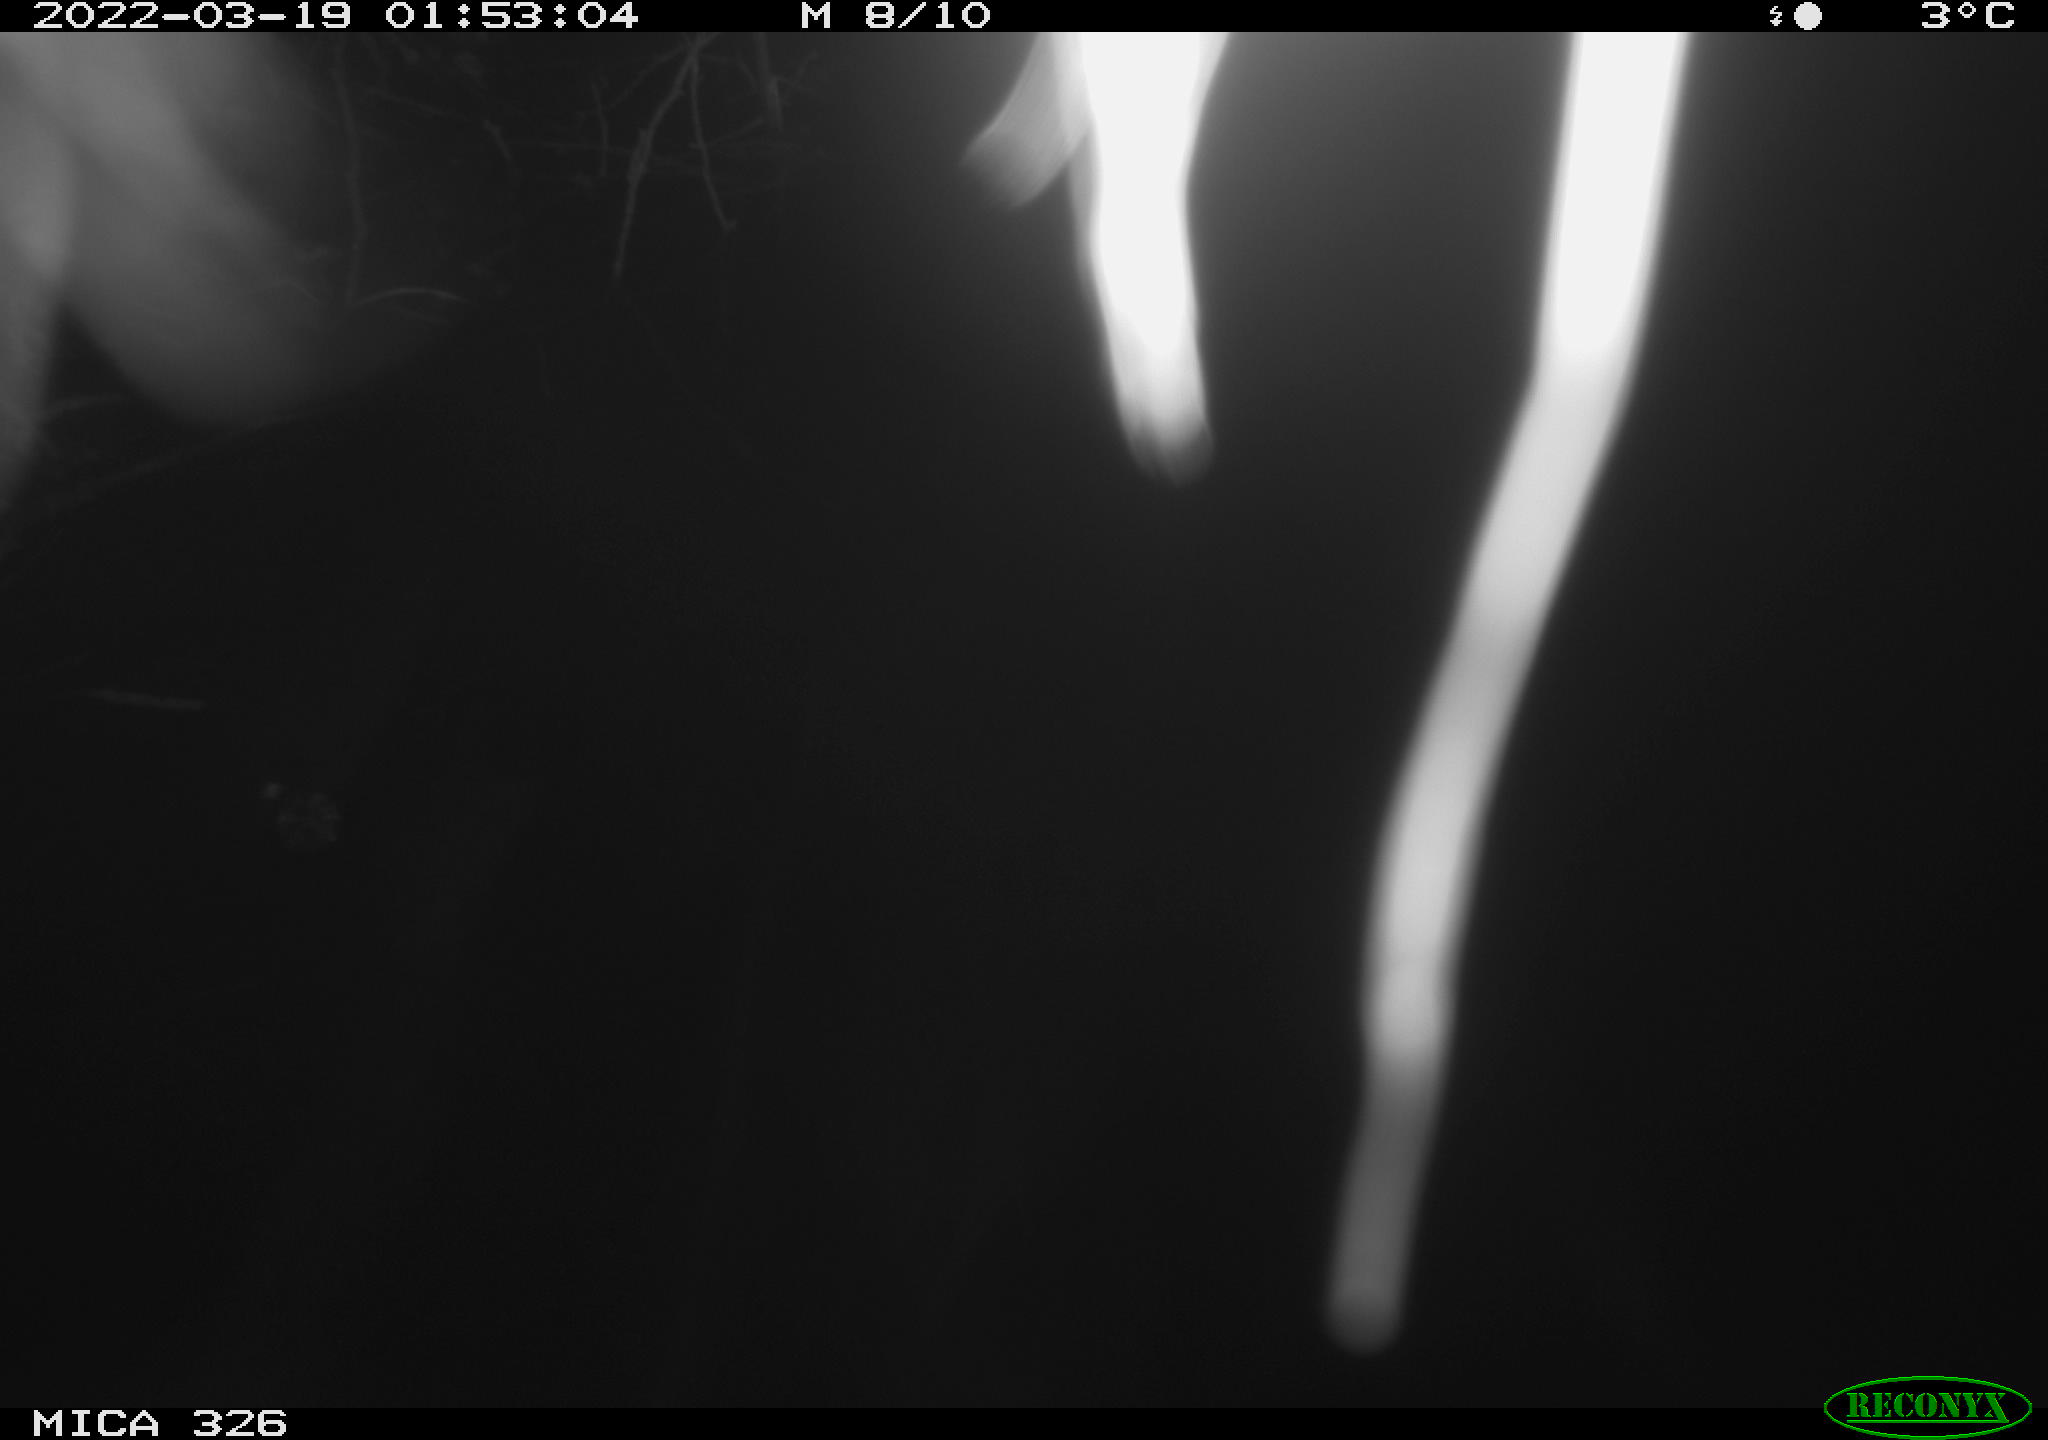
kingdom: Animalia
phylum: Chordata
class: Mammalia
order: Rodentia
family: Muridae
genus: Rattus
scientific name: Rattus norvegicus
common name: Brown rat
